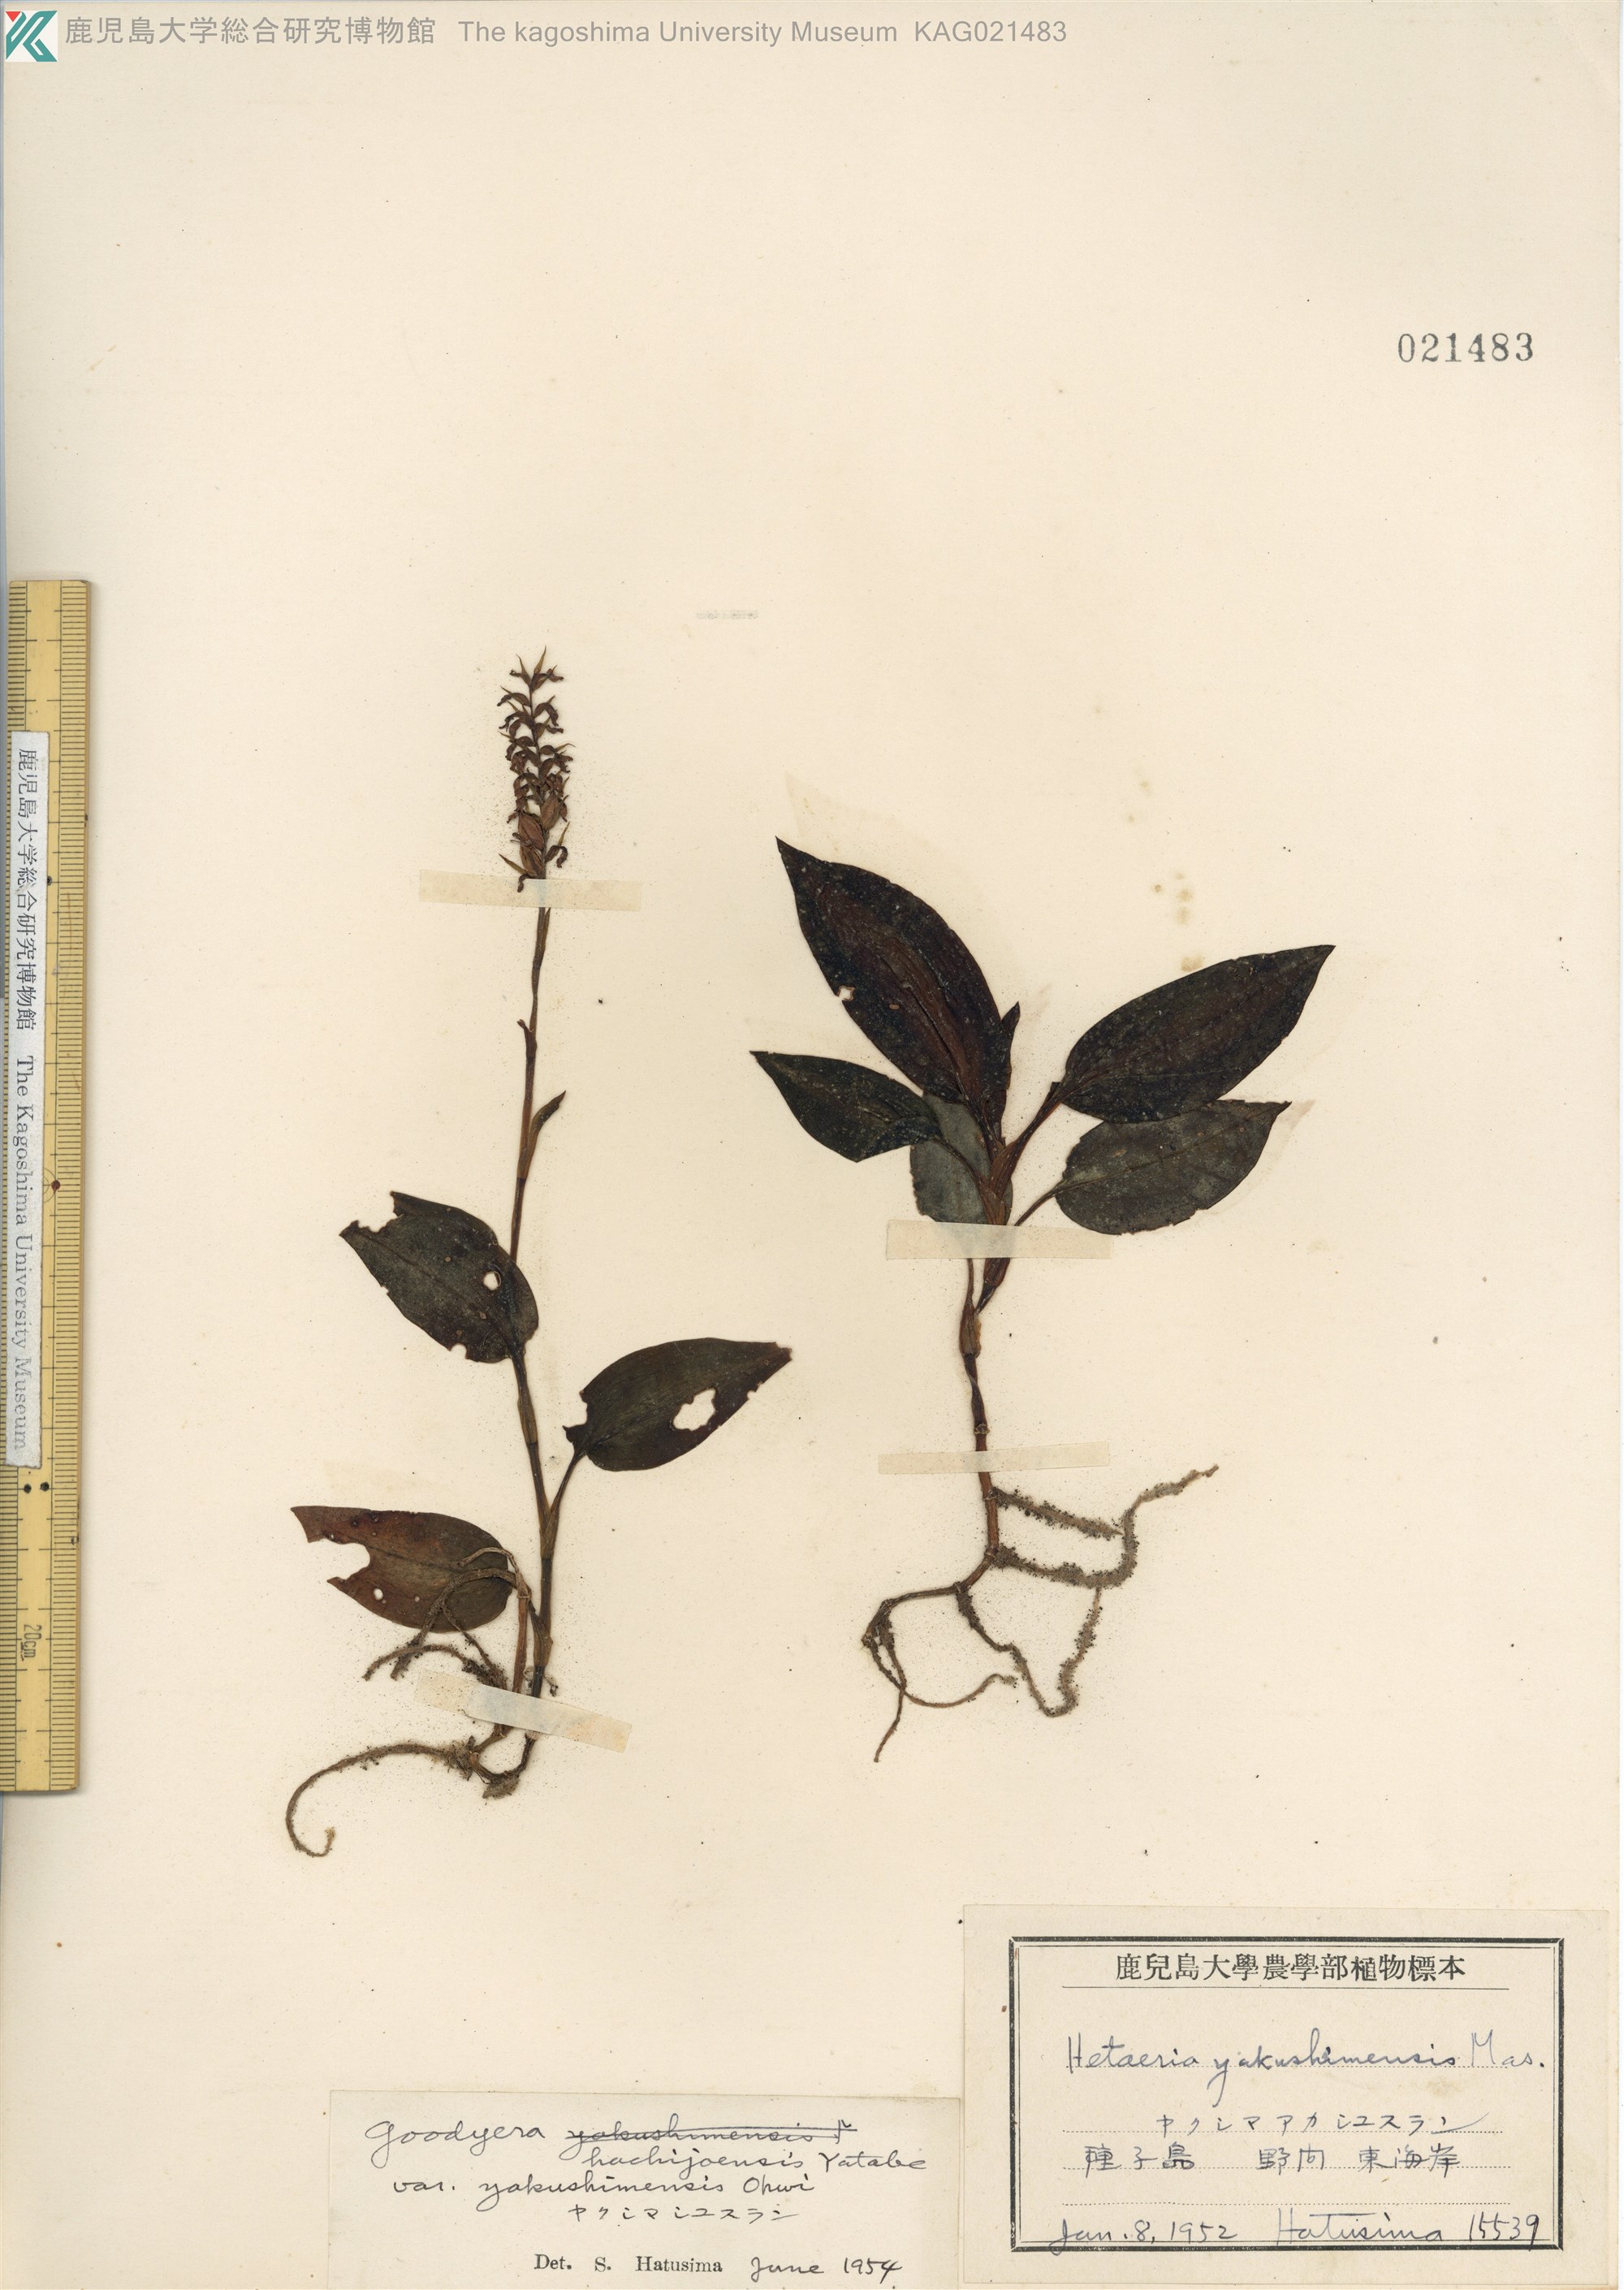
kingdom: Plantae
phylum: Tracheophyta
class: Liliopsida
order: Asparagales
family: Orchidaceae
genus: Goodyera
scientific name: Goodyera hachijoensis
